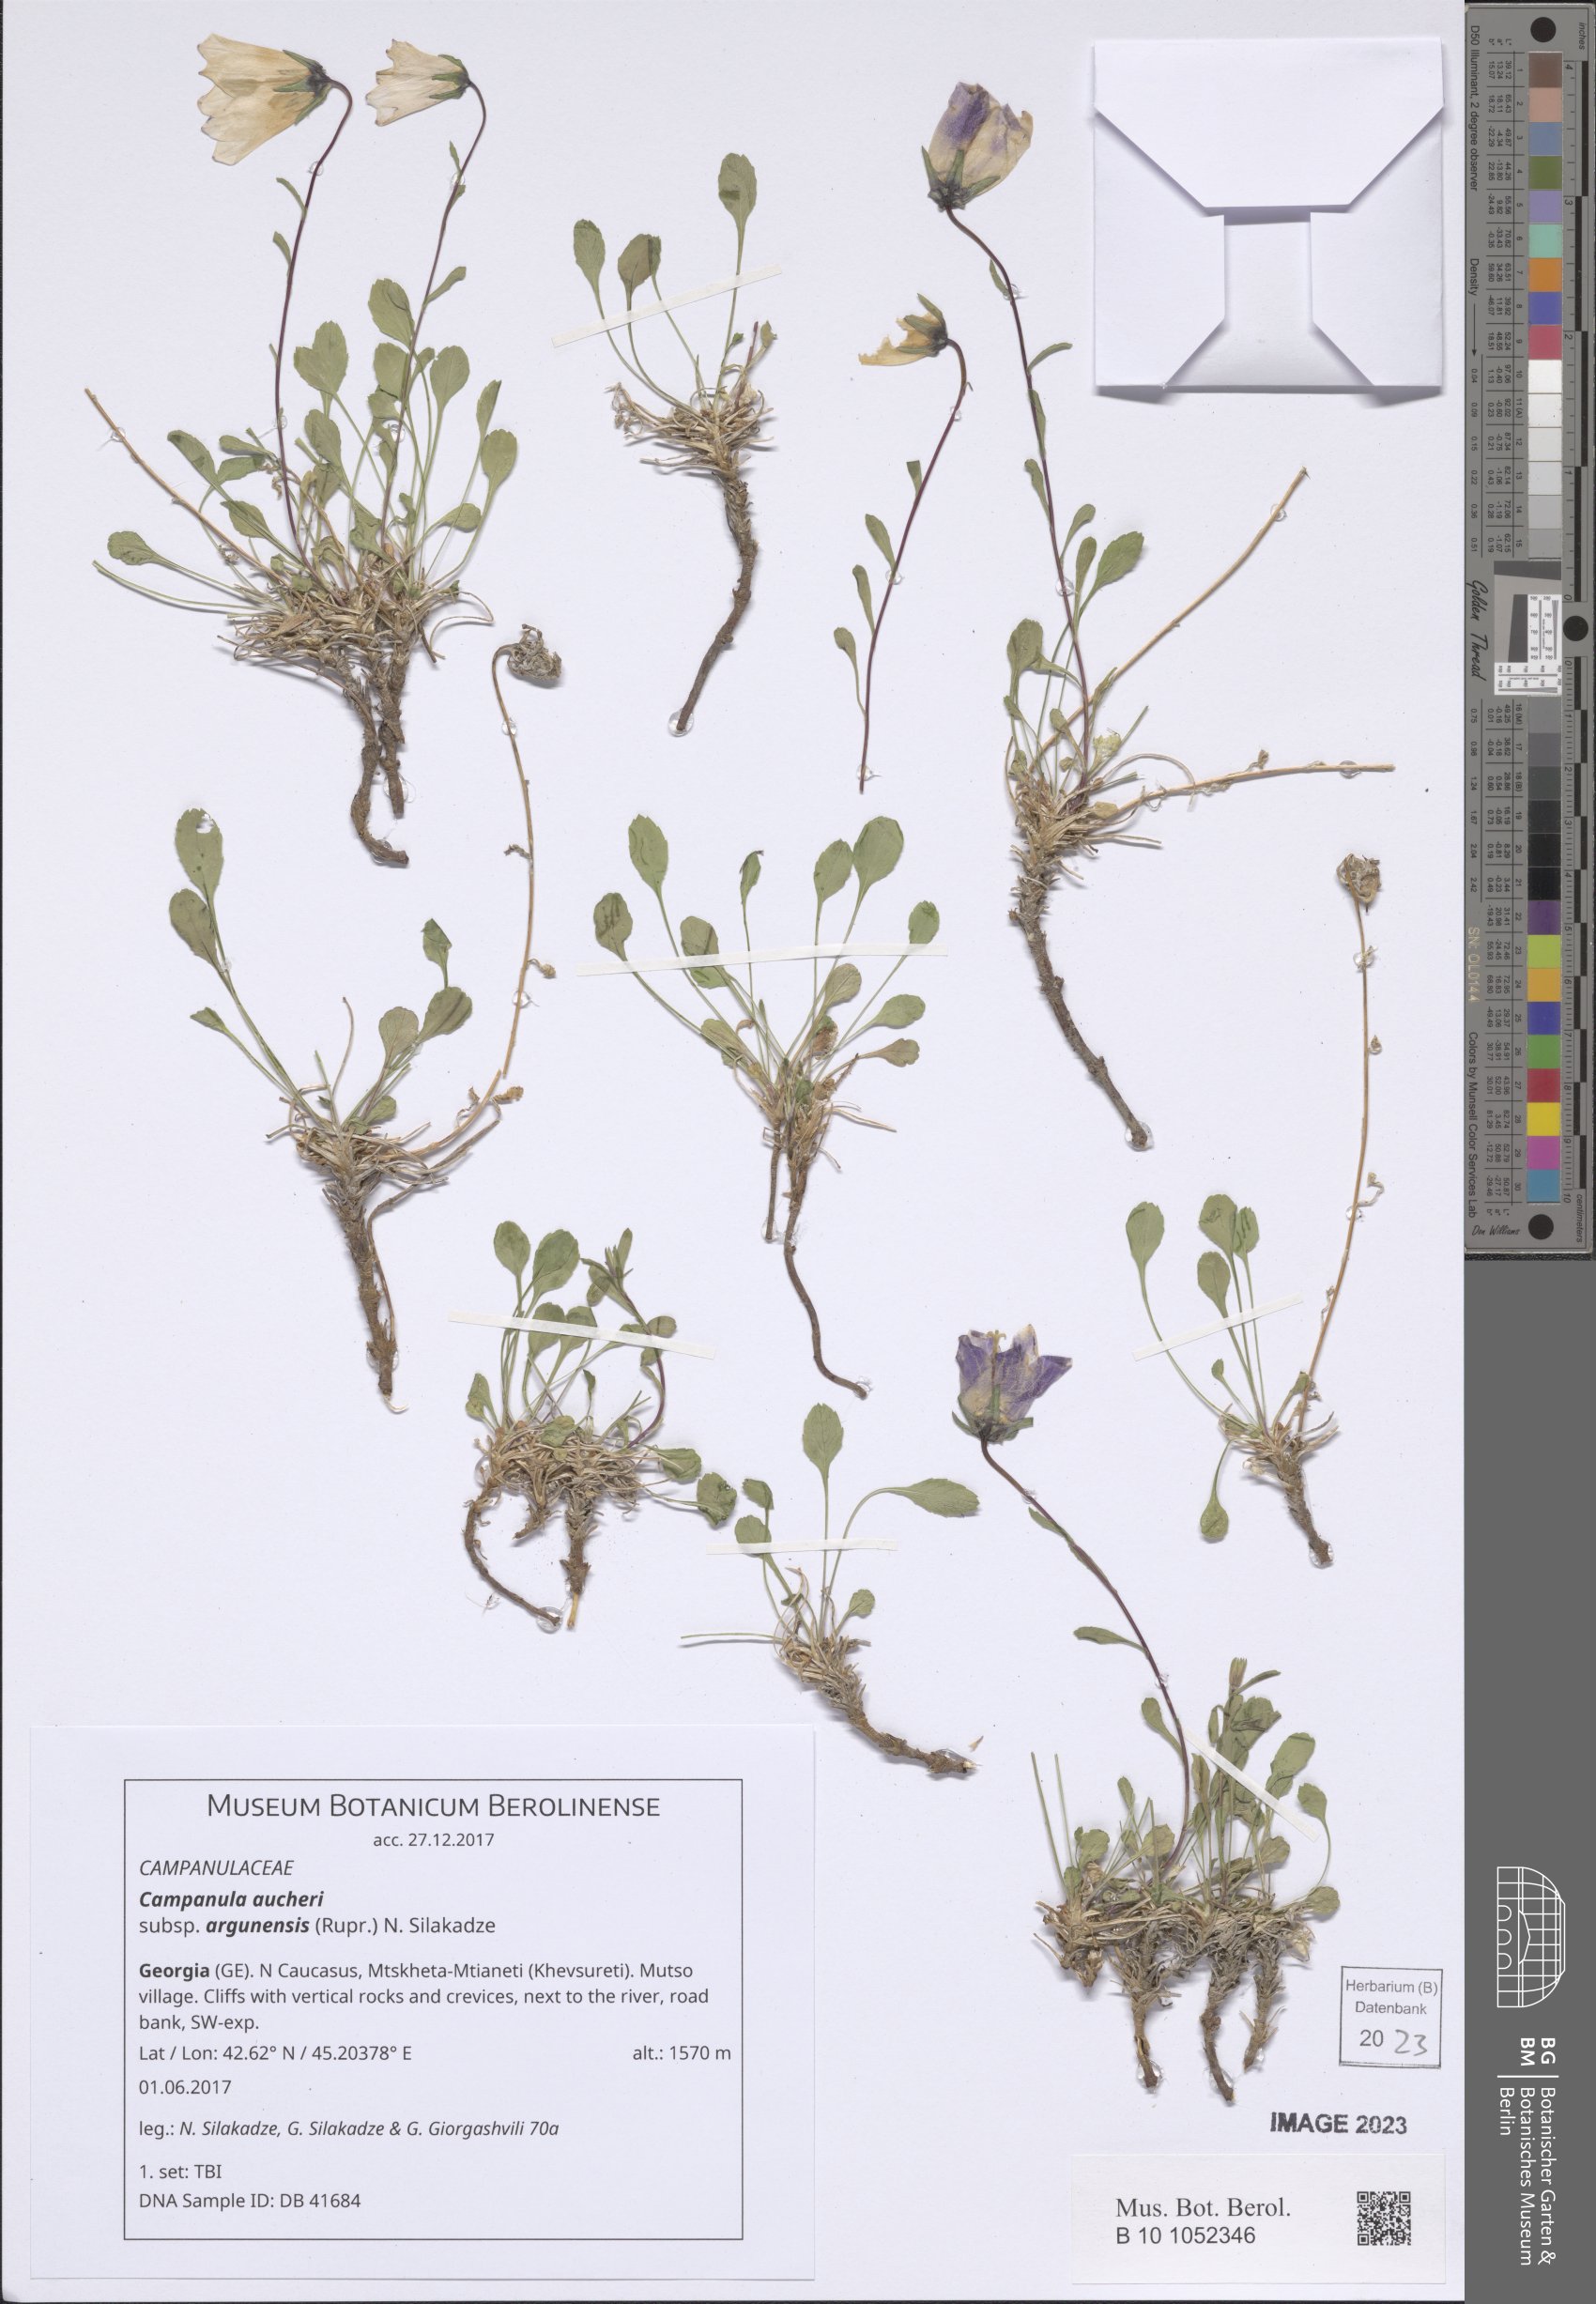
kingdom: Plantae
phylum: Tracheophyta
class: Magnoliopsida
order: Asterales
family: Campanulaceae
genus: Campanula
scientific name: Campanula saxifraga
